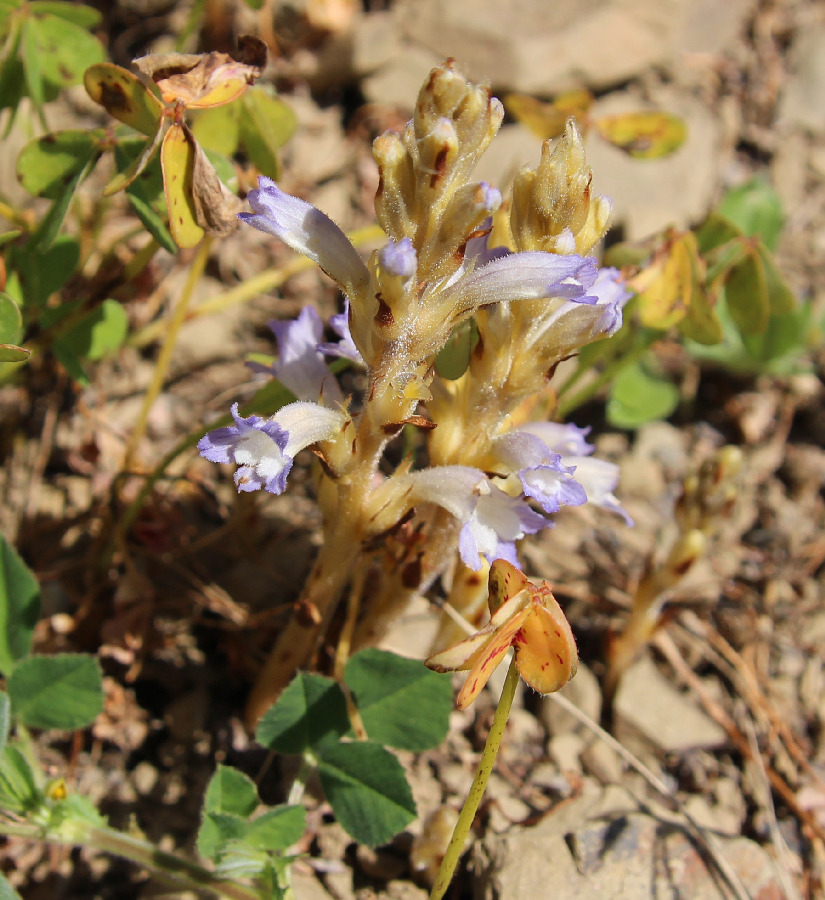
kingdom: Plantae
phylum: Tracheophyta
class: Magnoliopsida
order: Lamiales
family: Orobanchaceae
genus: Phelipanche
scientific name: Phelipanche ramosa
